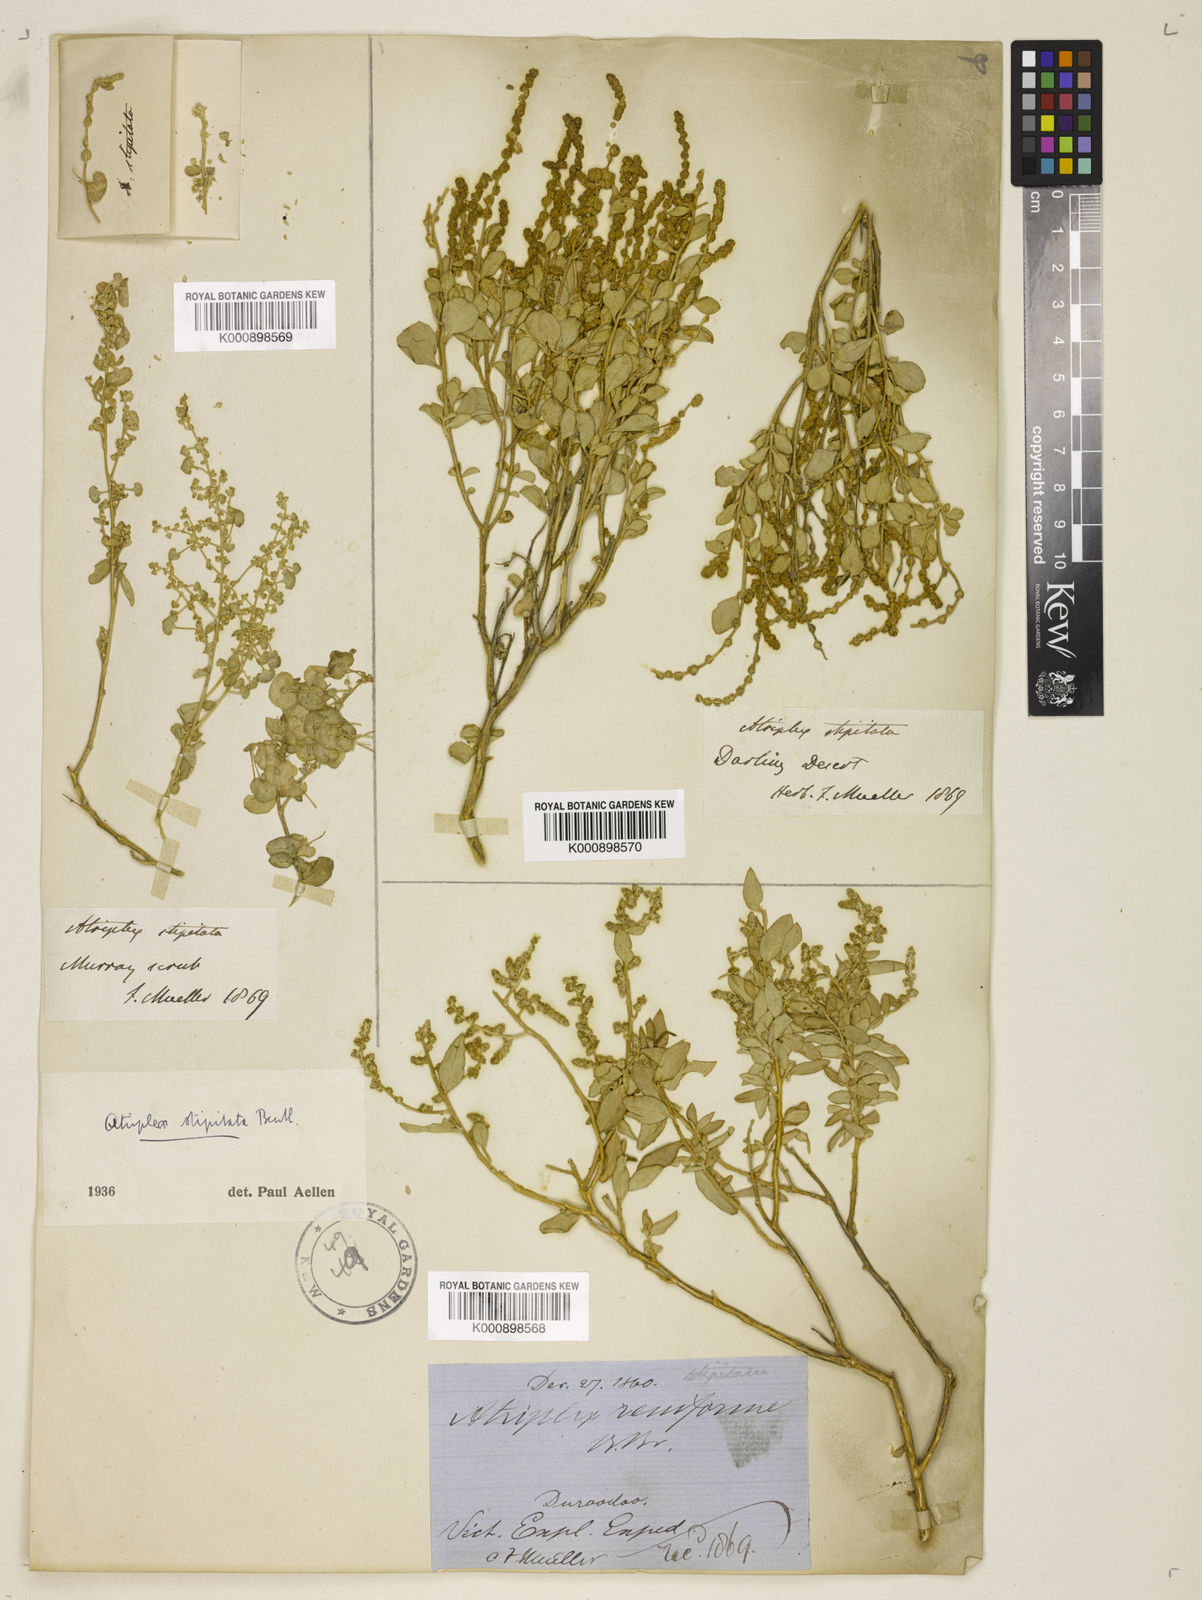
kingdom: Plantae
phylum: Tracheophyta
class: Magnoliopsida
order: Caryophyllales
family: Amaranthaceae
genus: Atriplex
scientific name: Atriplex stipitata
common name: Mallee saltbush
